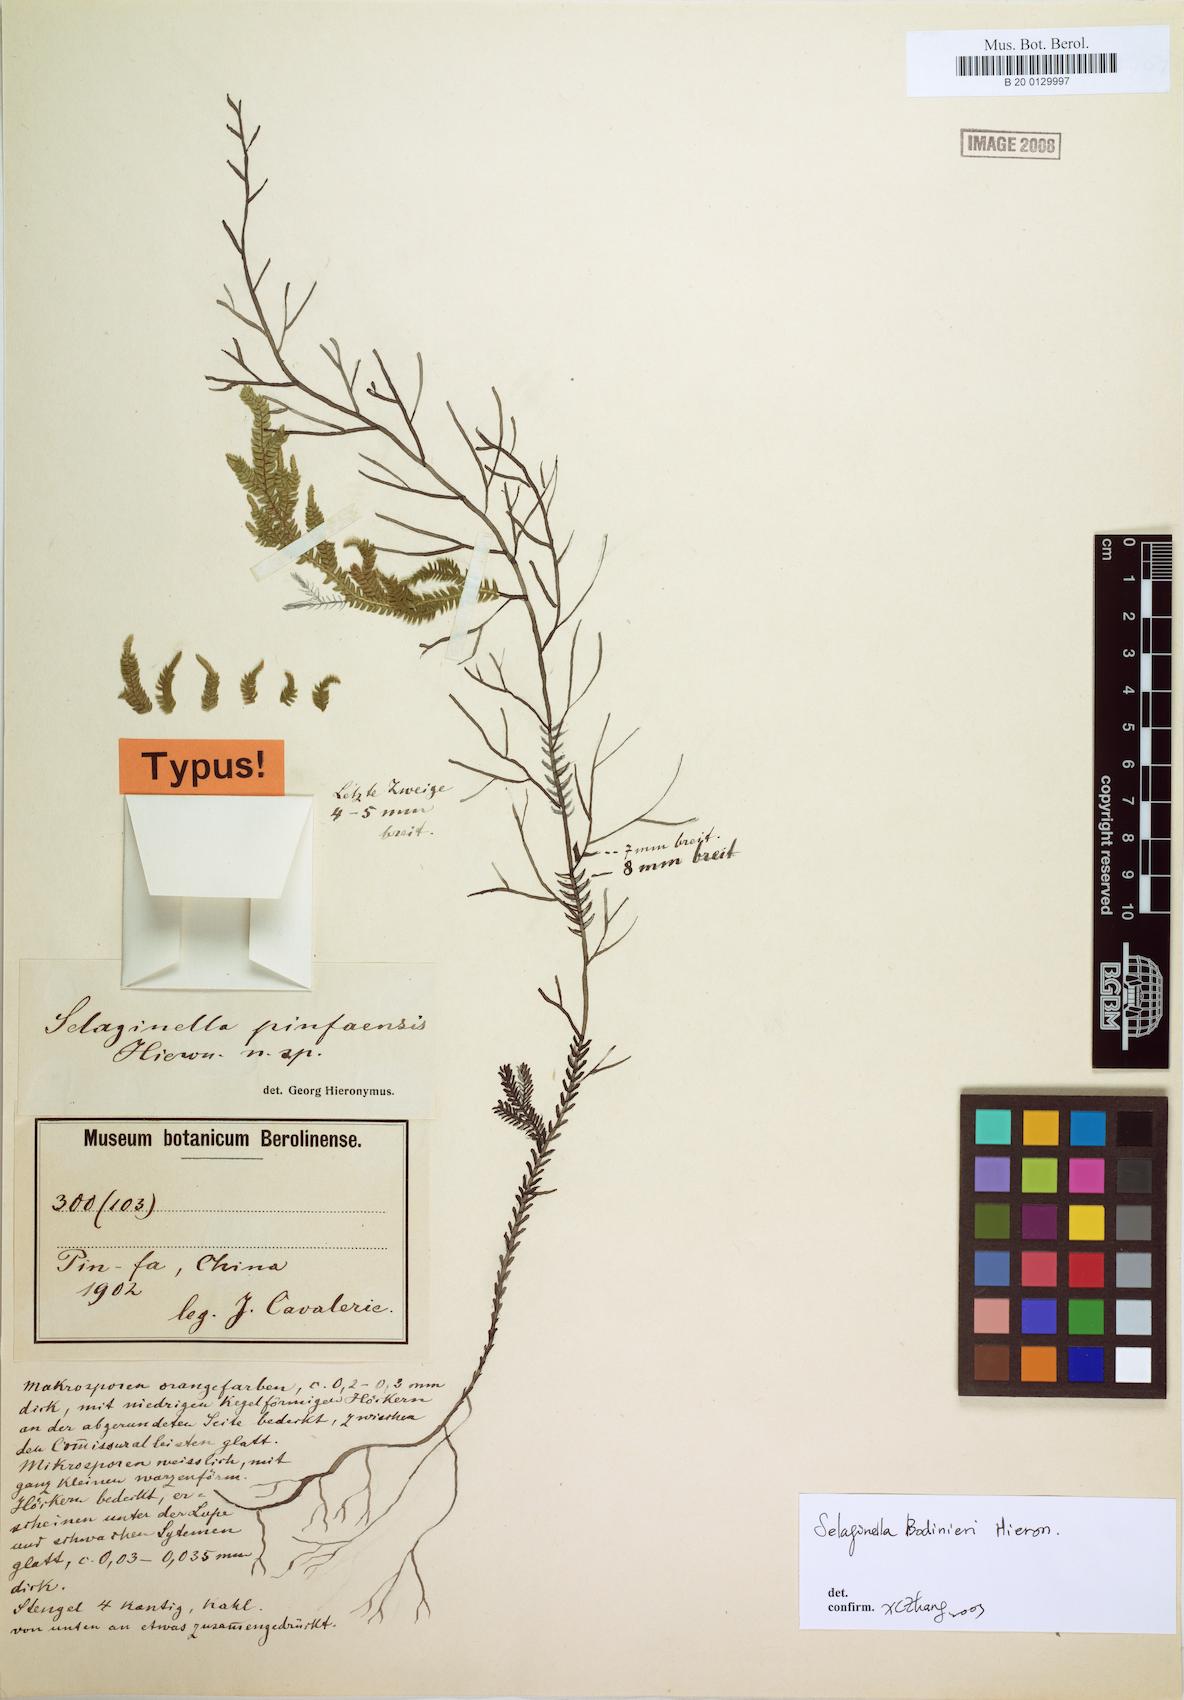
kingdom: Plantae
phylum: Tracheophyta
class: Lycopodiopsida
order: Selaginellales
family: Selaginellaceae
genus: Selaginella
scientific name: Selaginella bodinieri
